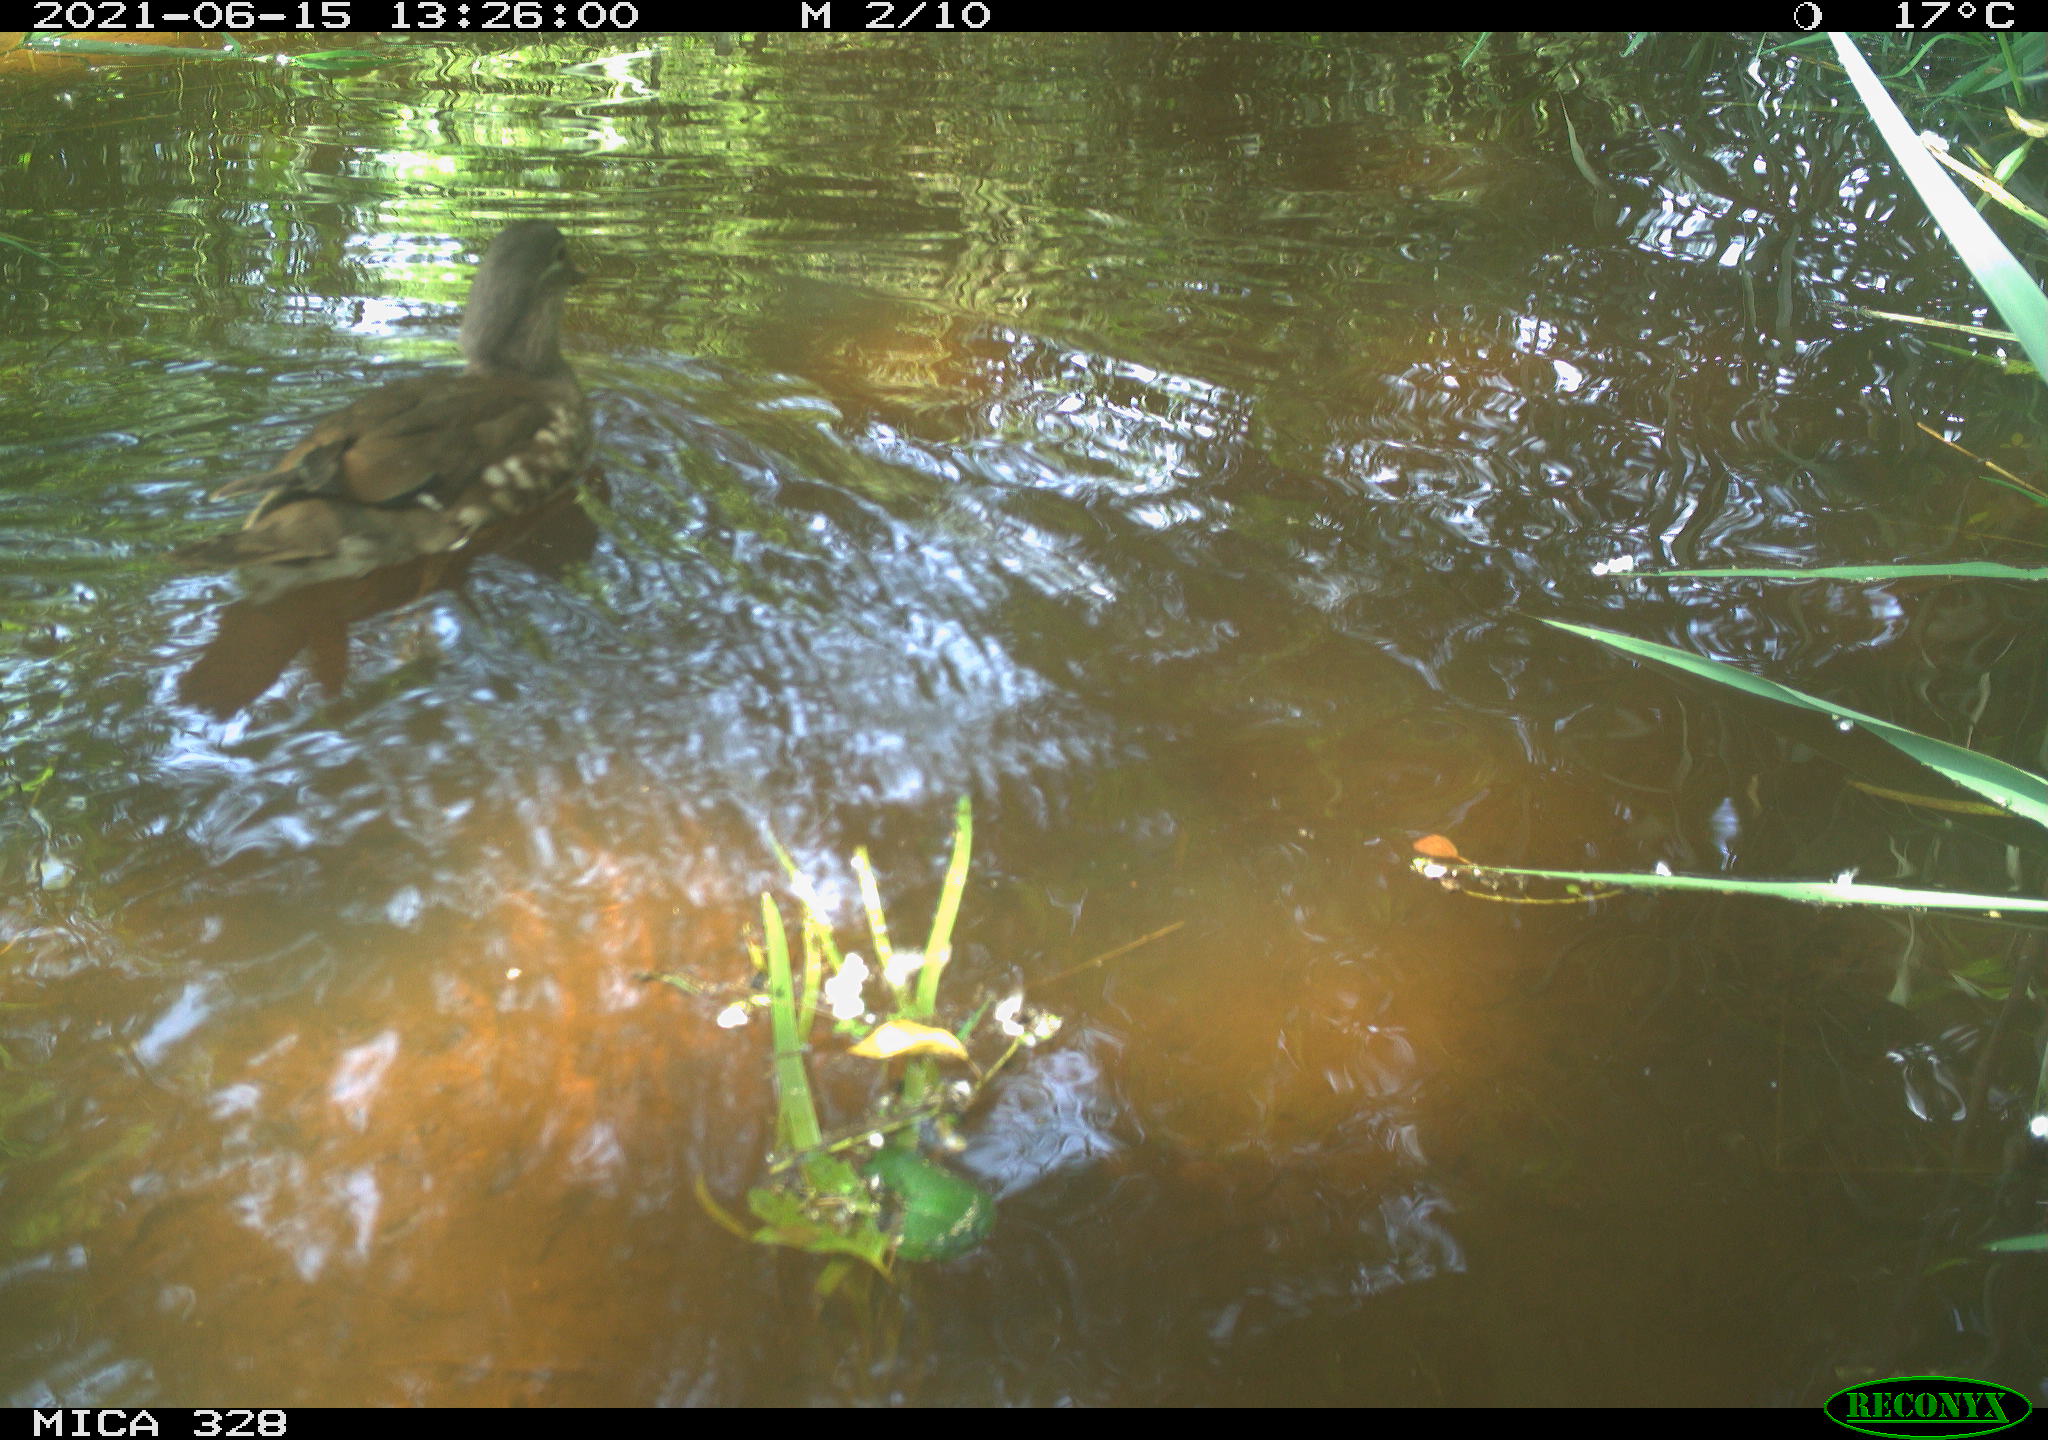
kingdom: Animalia
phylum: Chordata
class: Aves
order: Anseriformes
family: Anatidae
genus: Aix
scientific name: Aix galericulata
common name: Mandarin duck
